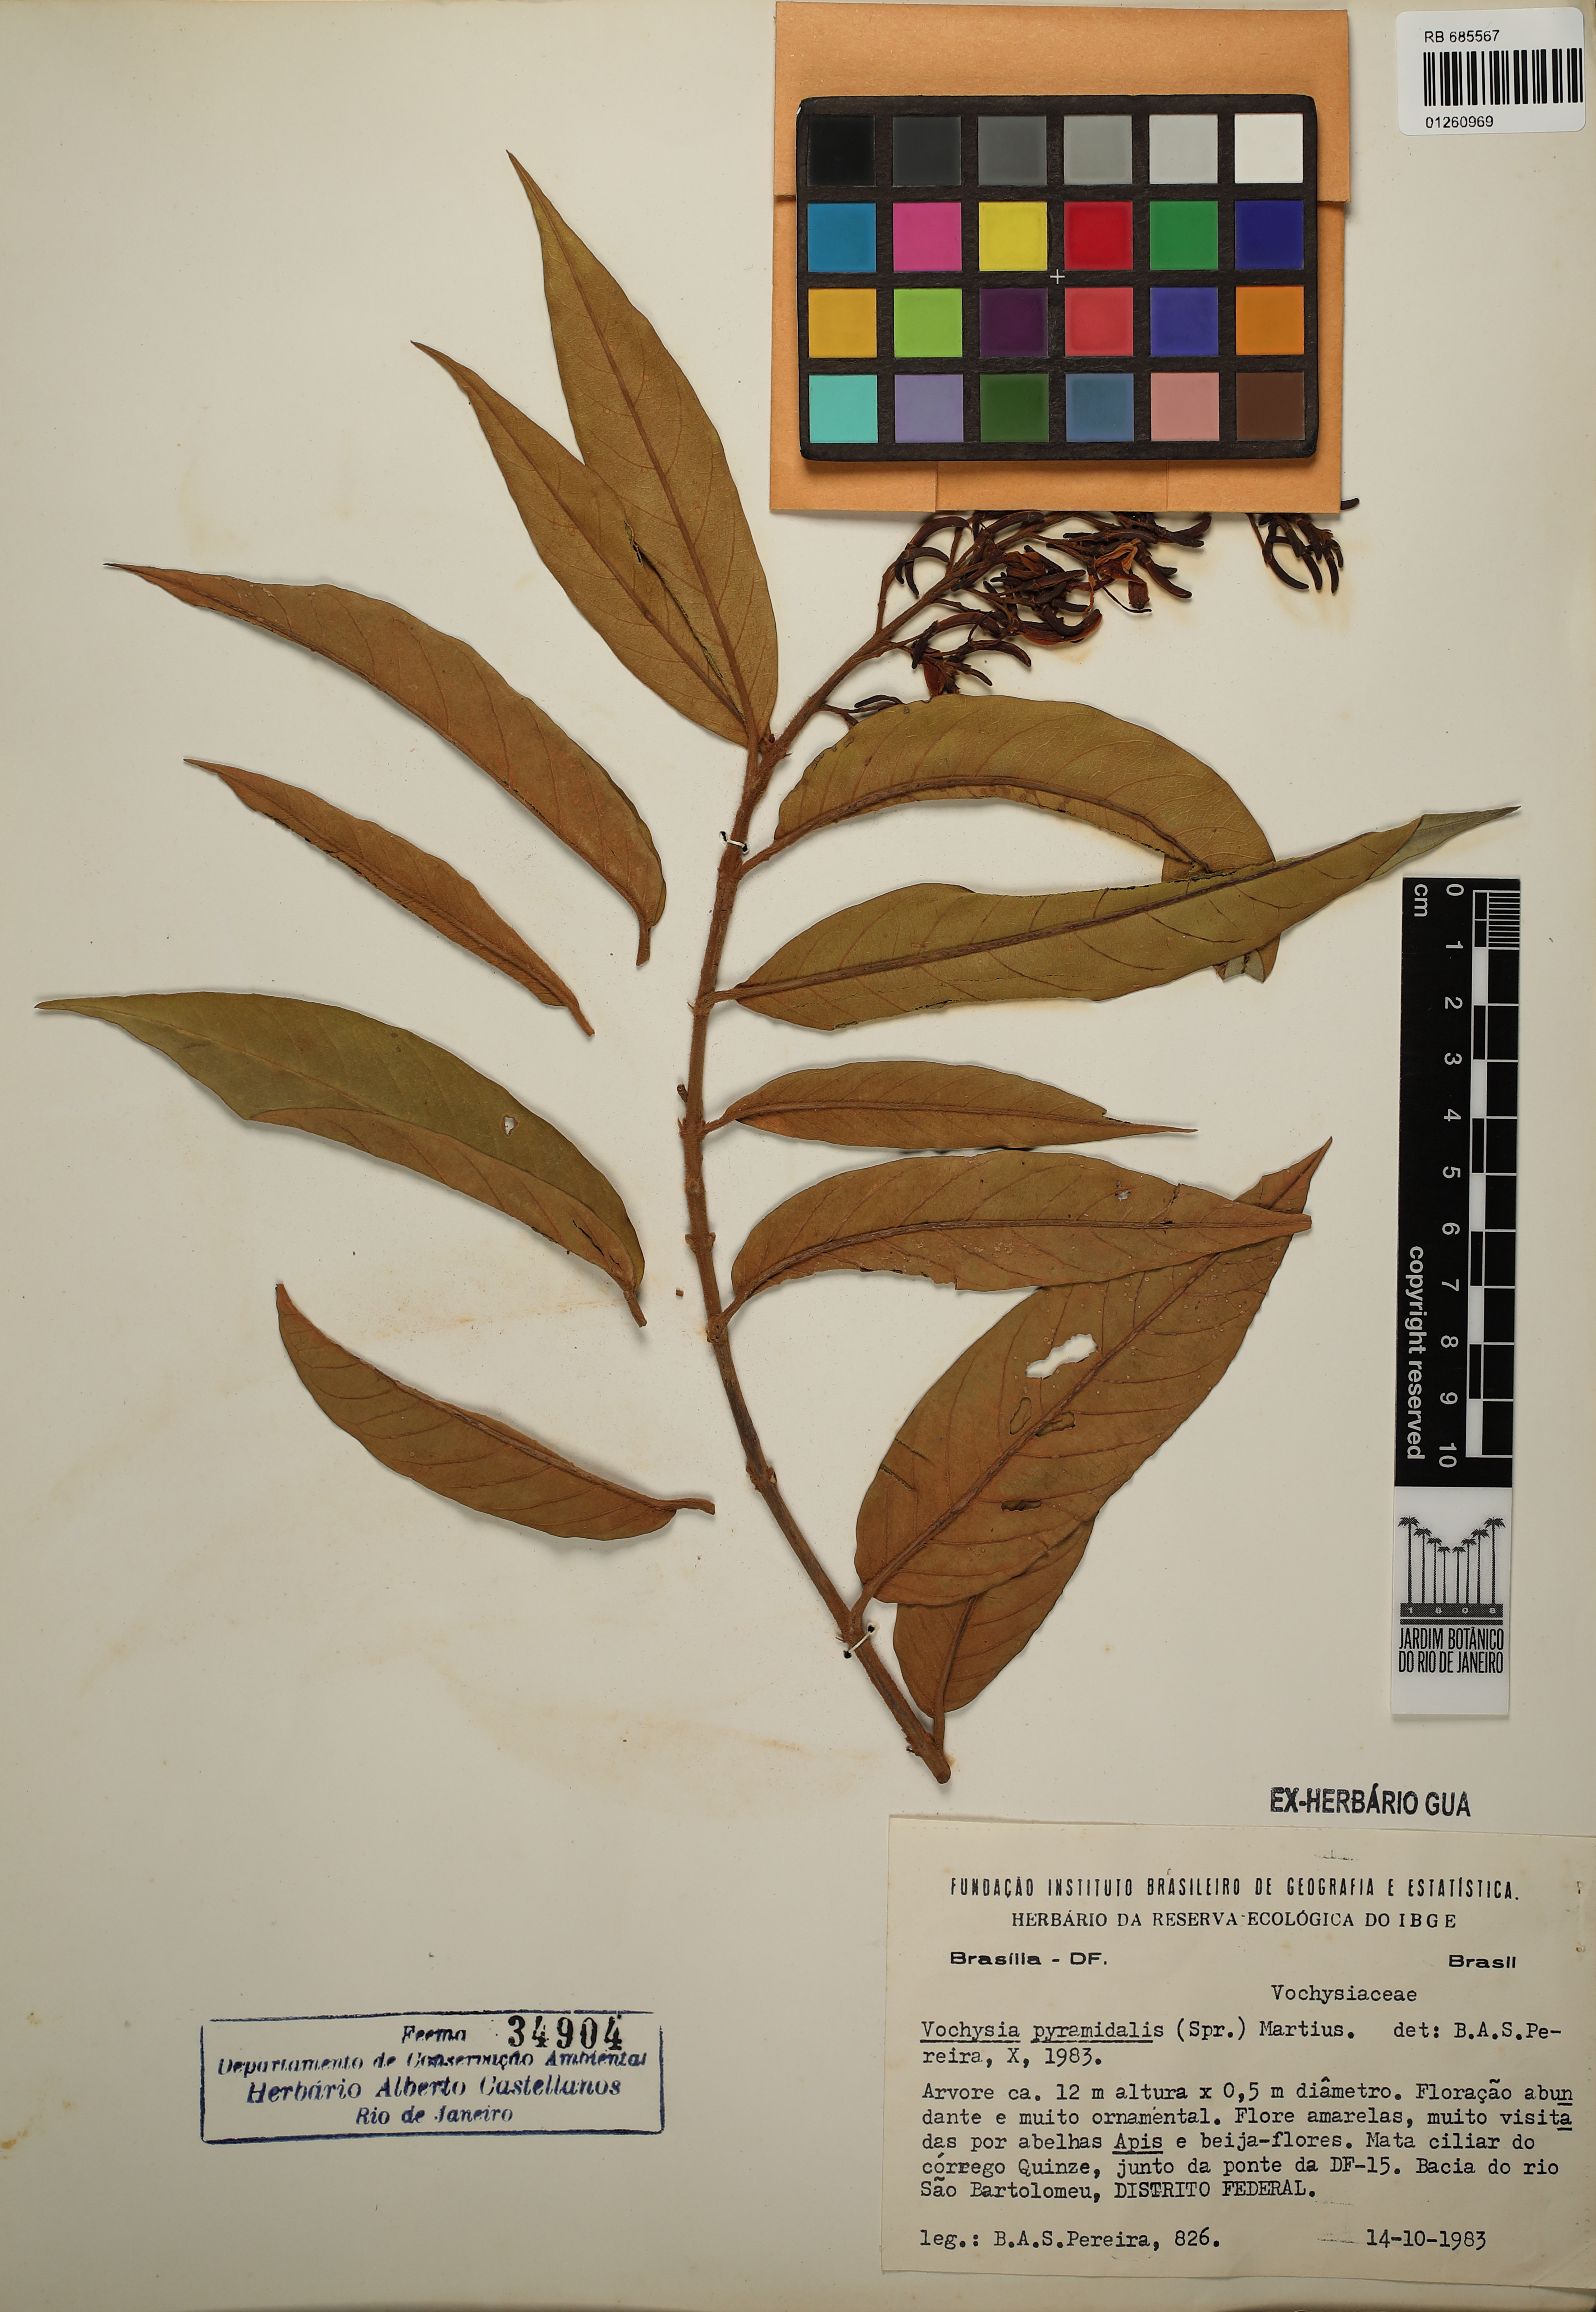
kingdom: Plantae
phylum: Tracheophyta
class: Magnoliopsida
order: Myrtales
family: Vochysiaceae
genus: Vochysia
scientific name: Vochysia pyramidalis
